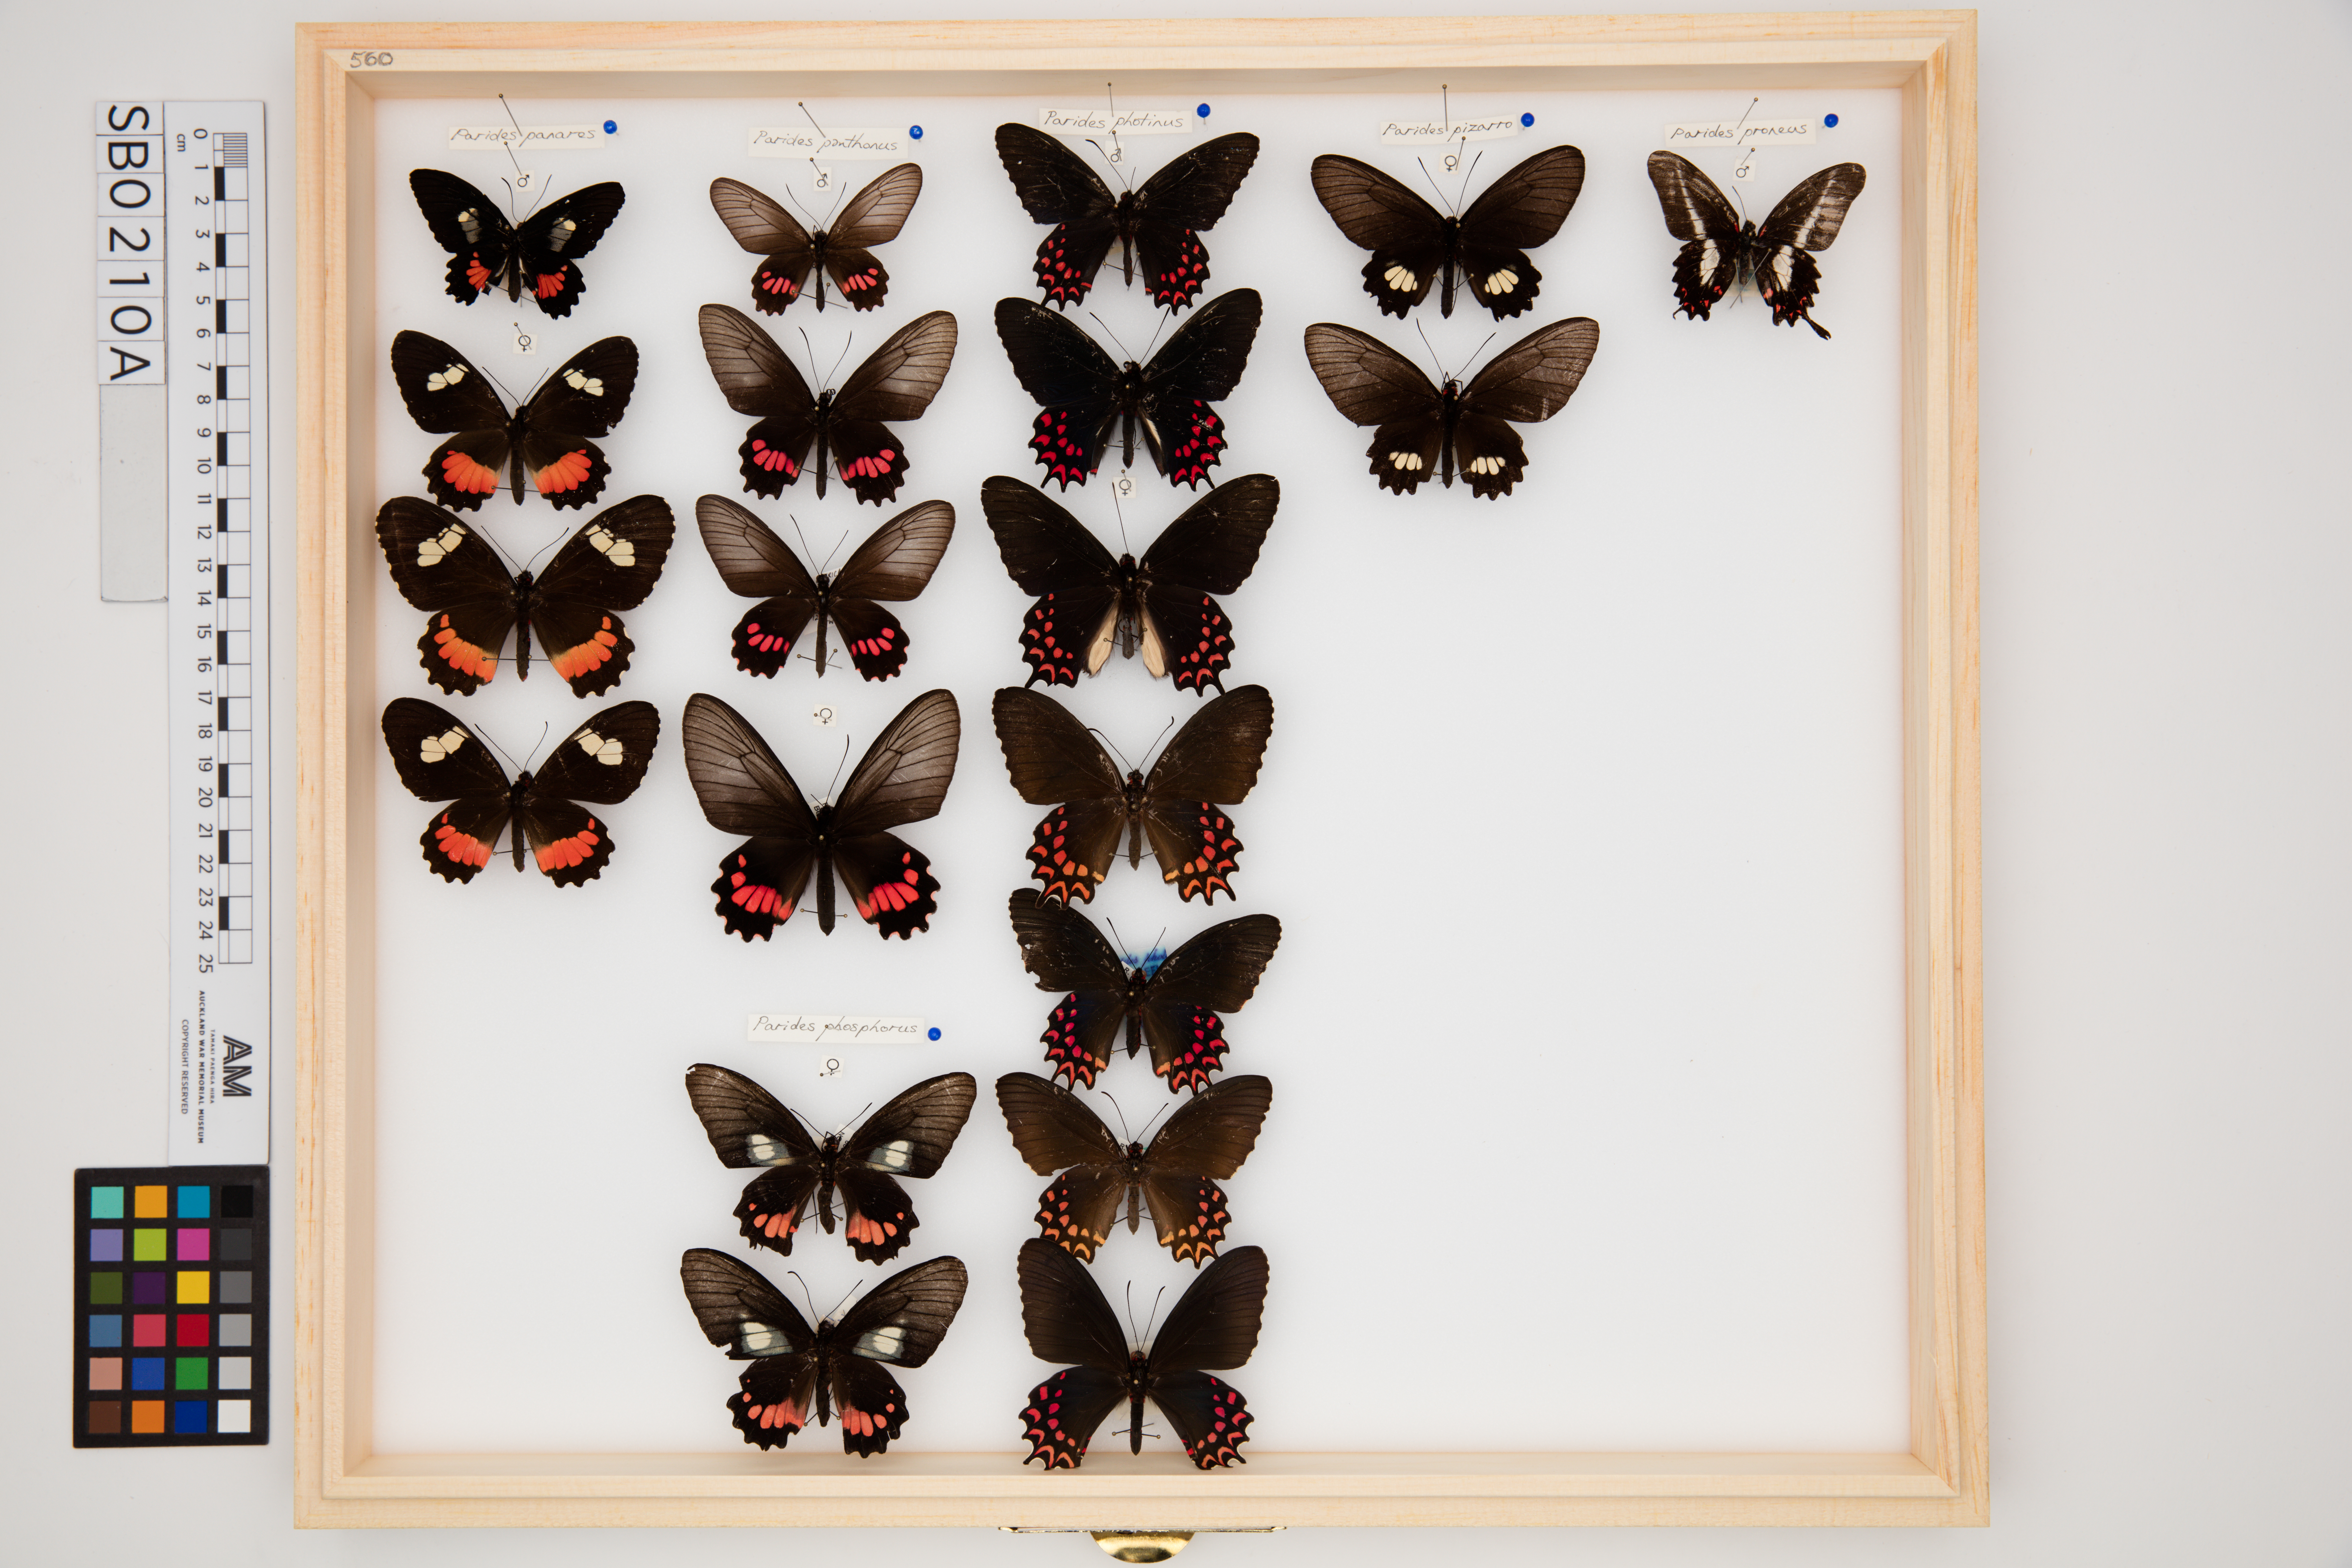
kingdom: Animalia
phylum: Arthropoda
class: Insecta
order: Lepidoptera
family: Papilionidae
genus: Parides
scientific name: Parides panthonus
